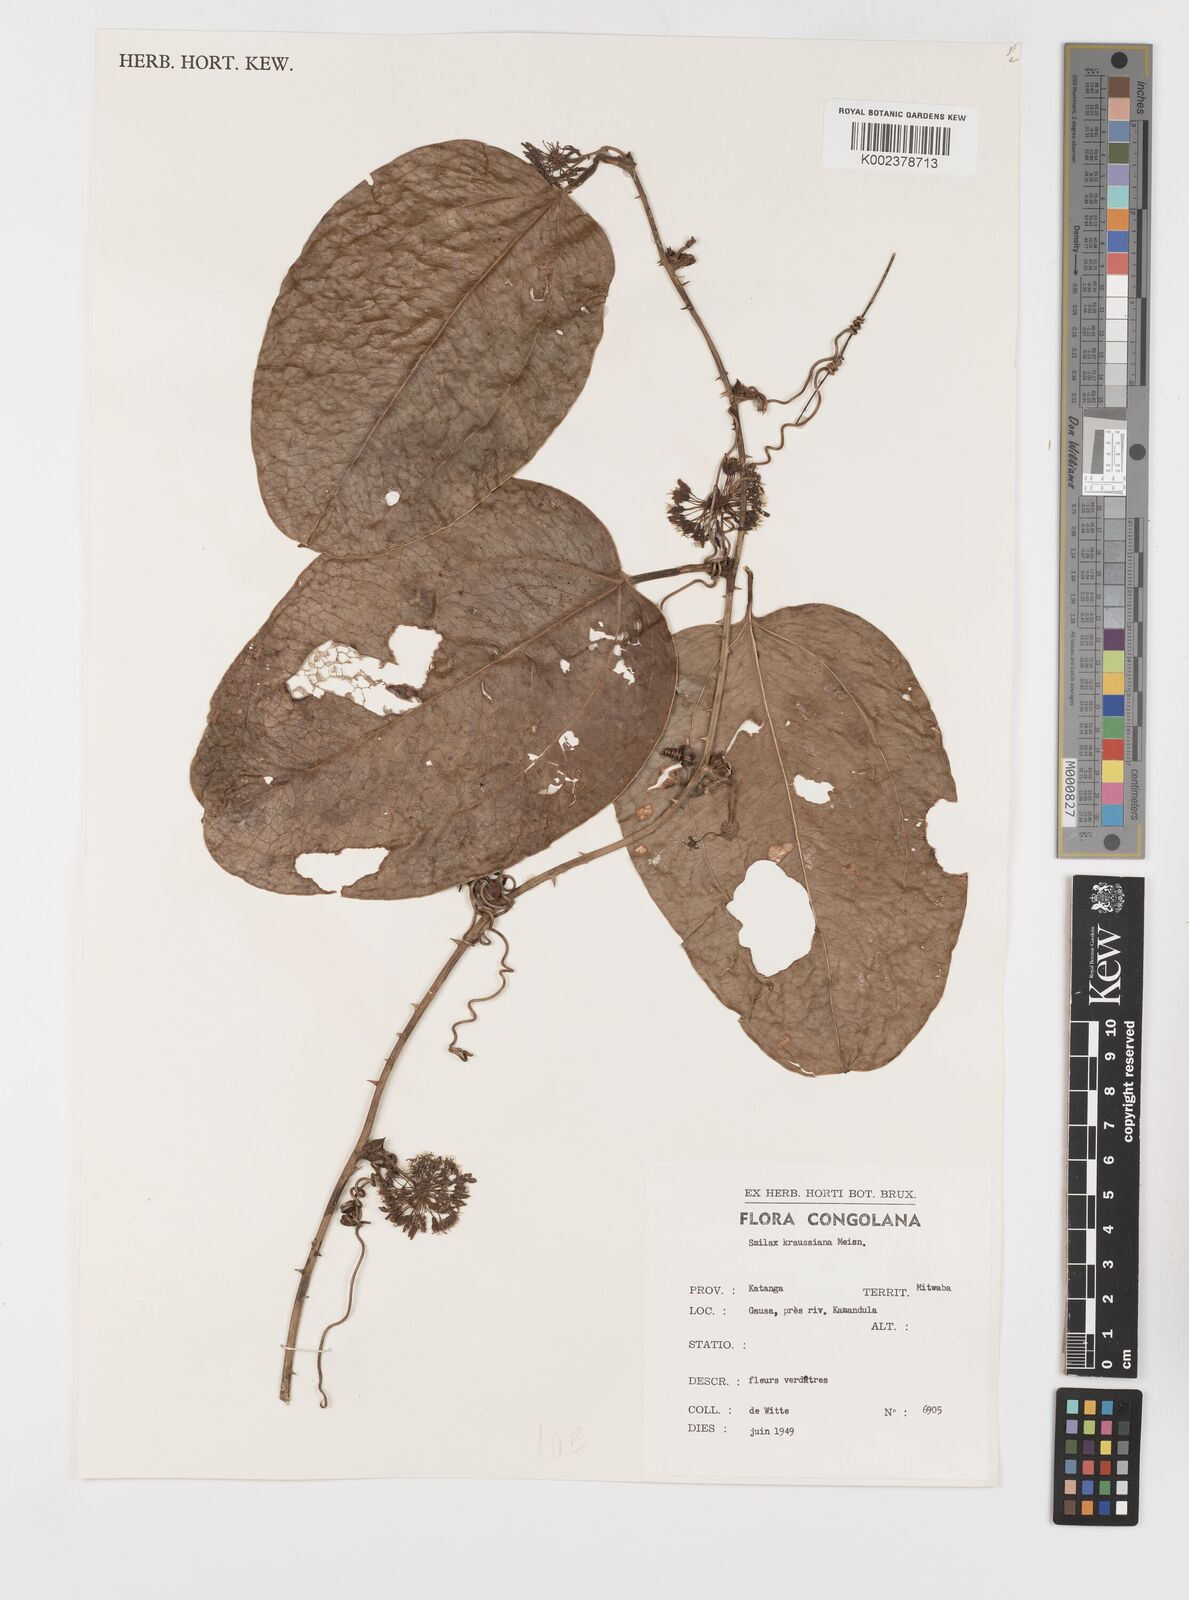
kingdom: Plantae
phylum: Tracheophyta
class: Liliopsida
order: Liliales
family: Smilacaceae
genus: Smilax
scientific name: Smilax anceps
